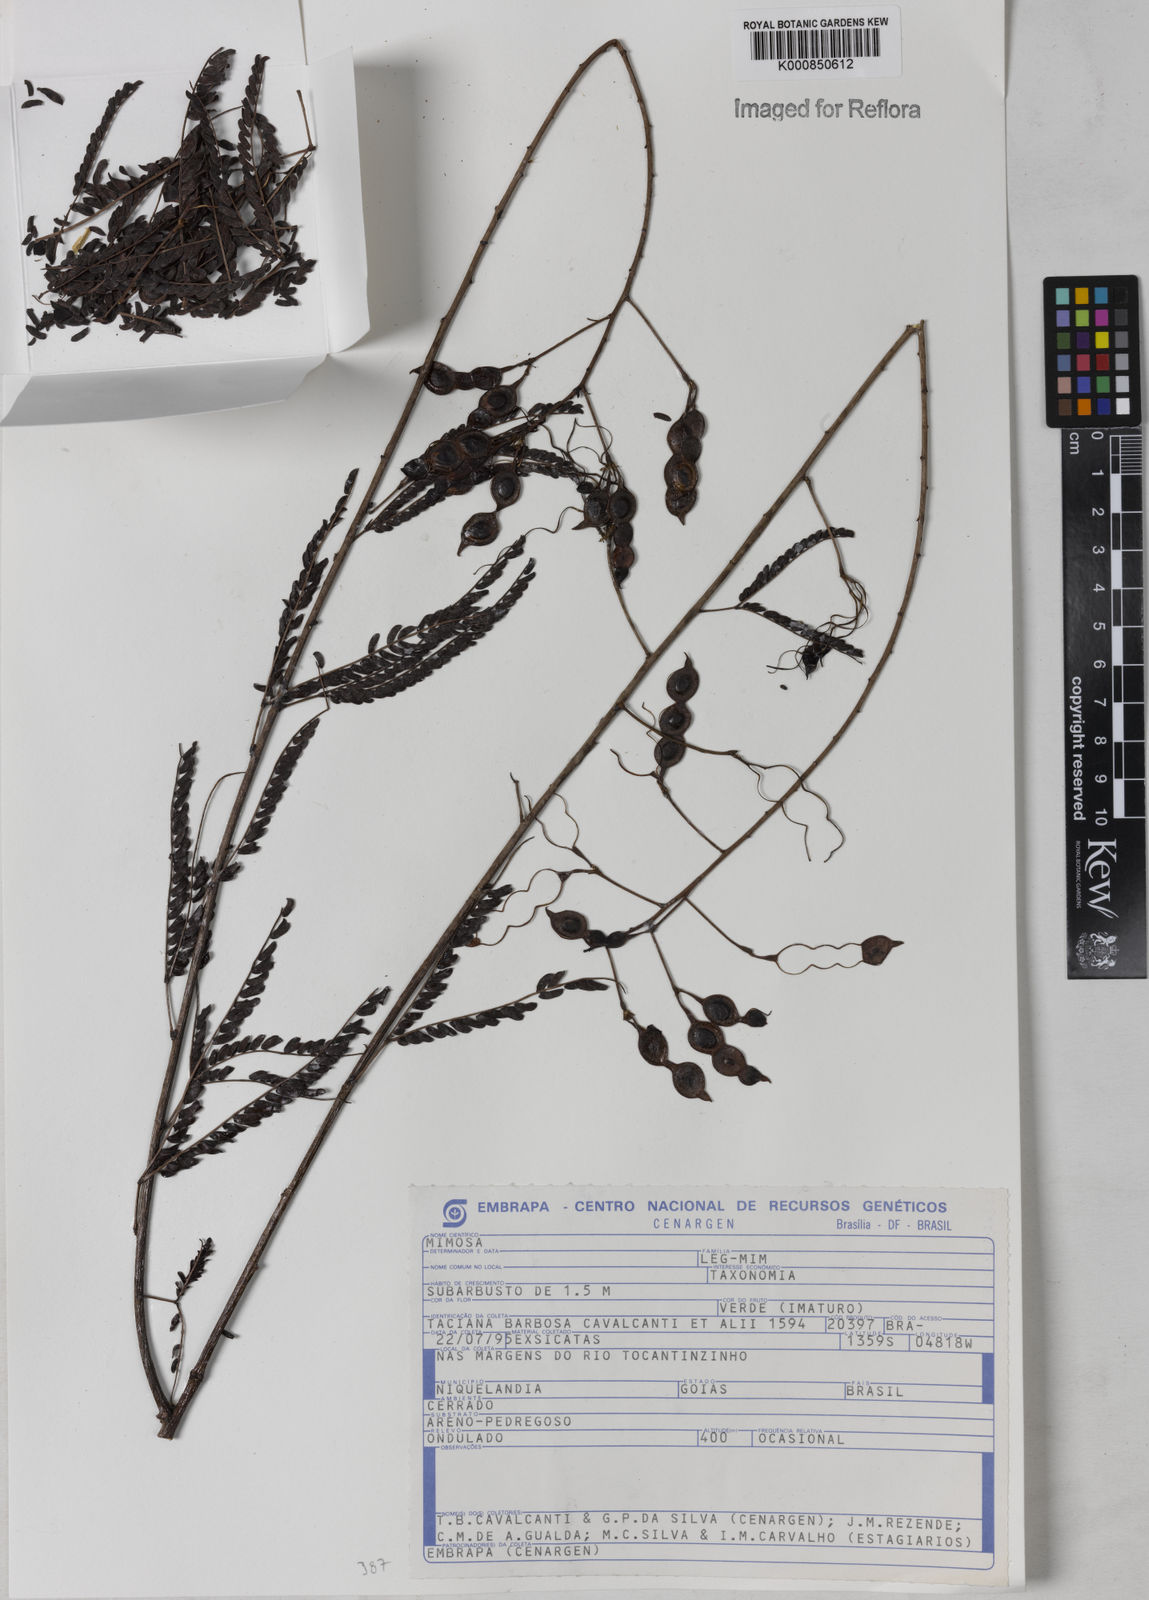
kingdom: Plantae
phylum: Tracheophyta
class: Magnoliopsida
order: Fabales
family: Fabaceae
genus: Mimosa
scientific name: Mimosa discobola
